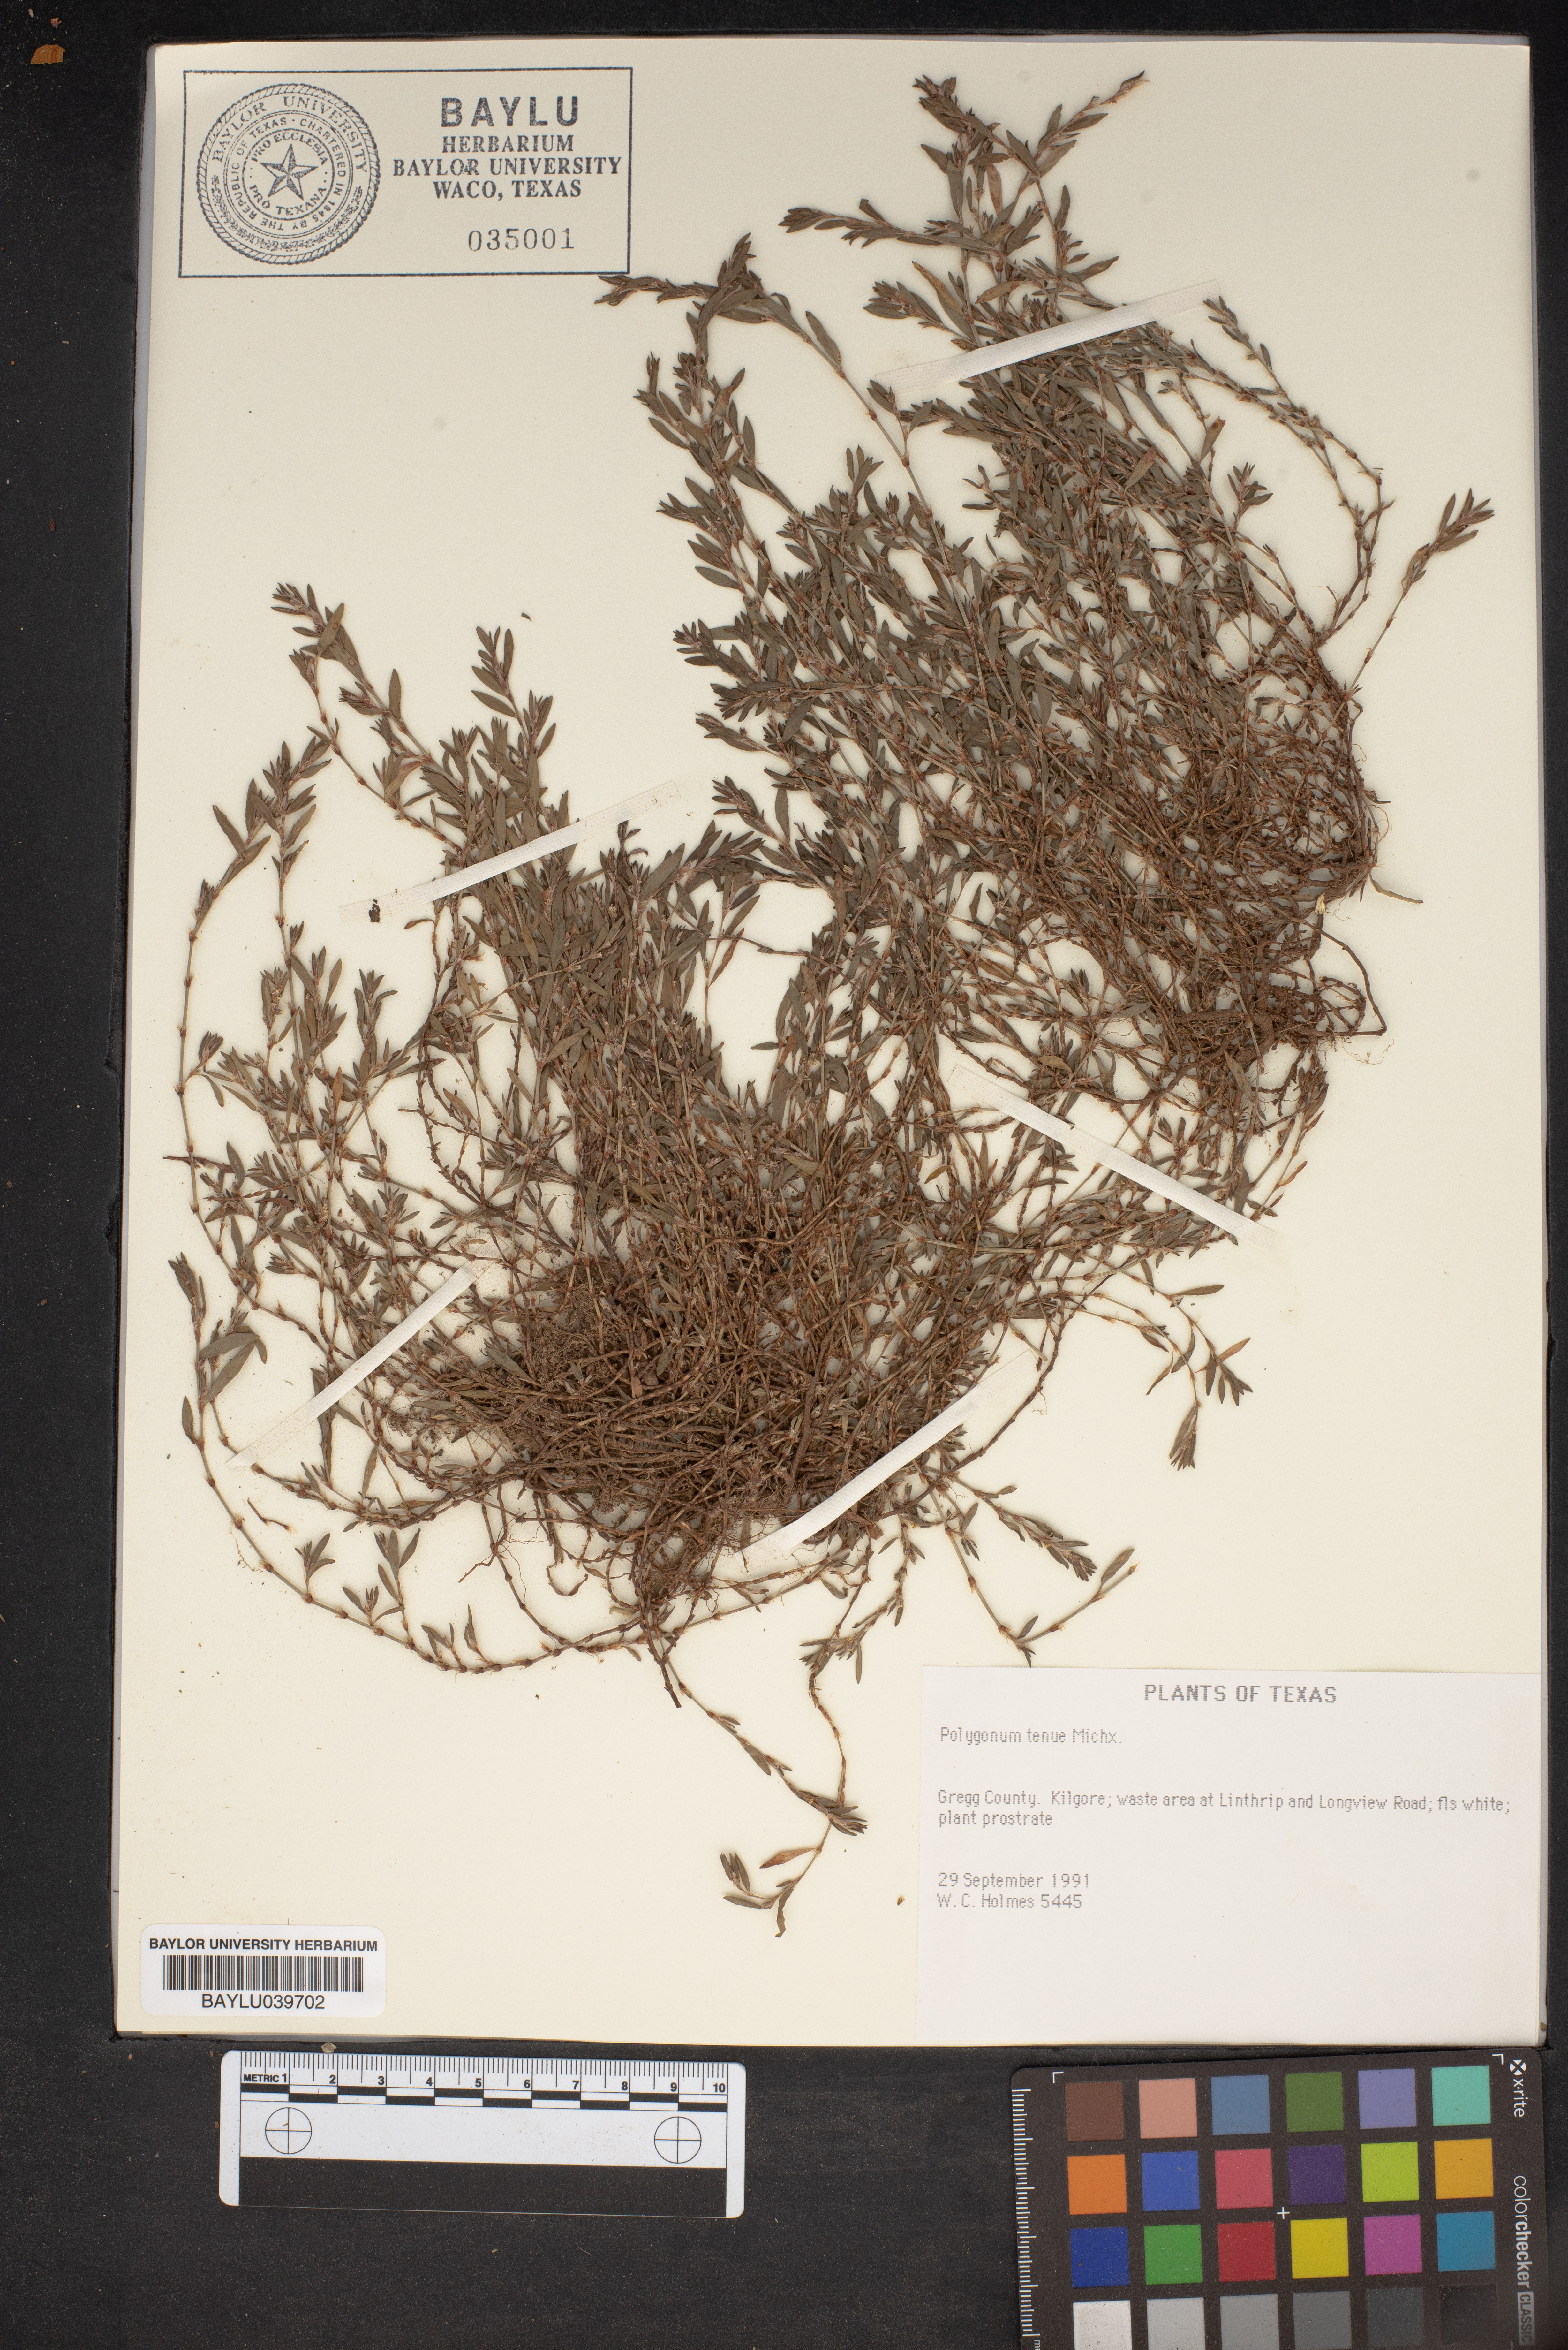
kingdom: Plantae
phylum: Tracheophyta
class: Magnoliopsida
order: Caryophyllales
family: Polygonaceae
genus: Polygonum
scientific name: Polygonum tenue
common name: Pleat-leaved knotweed
